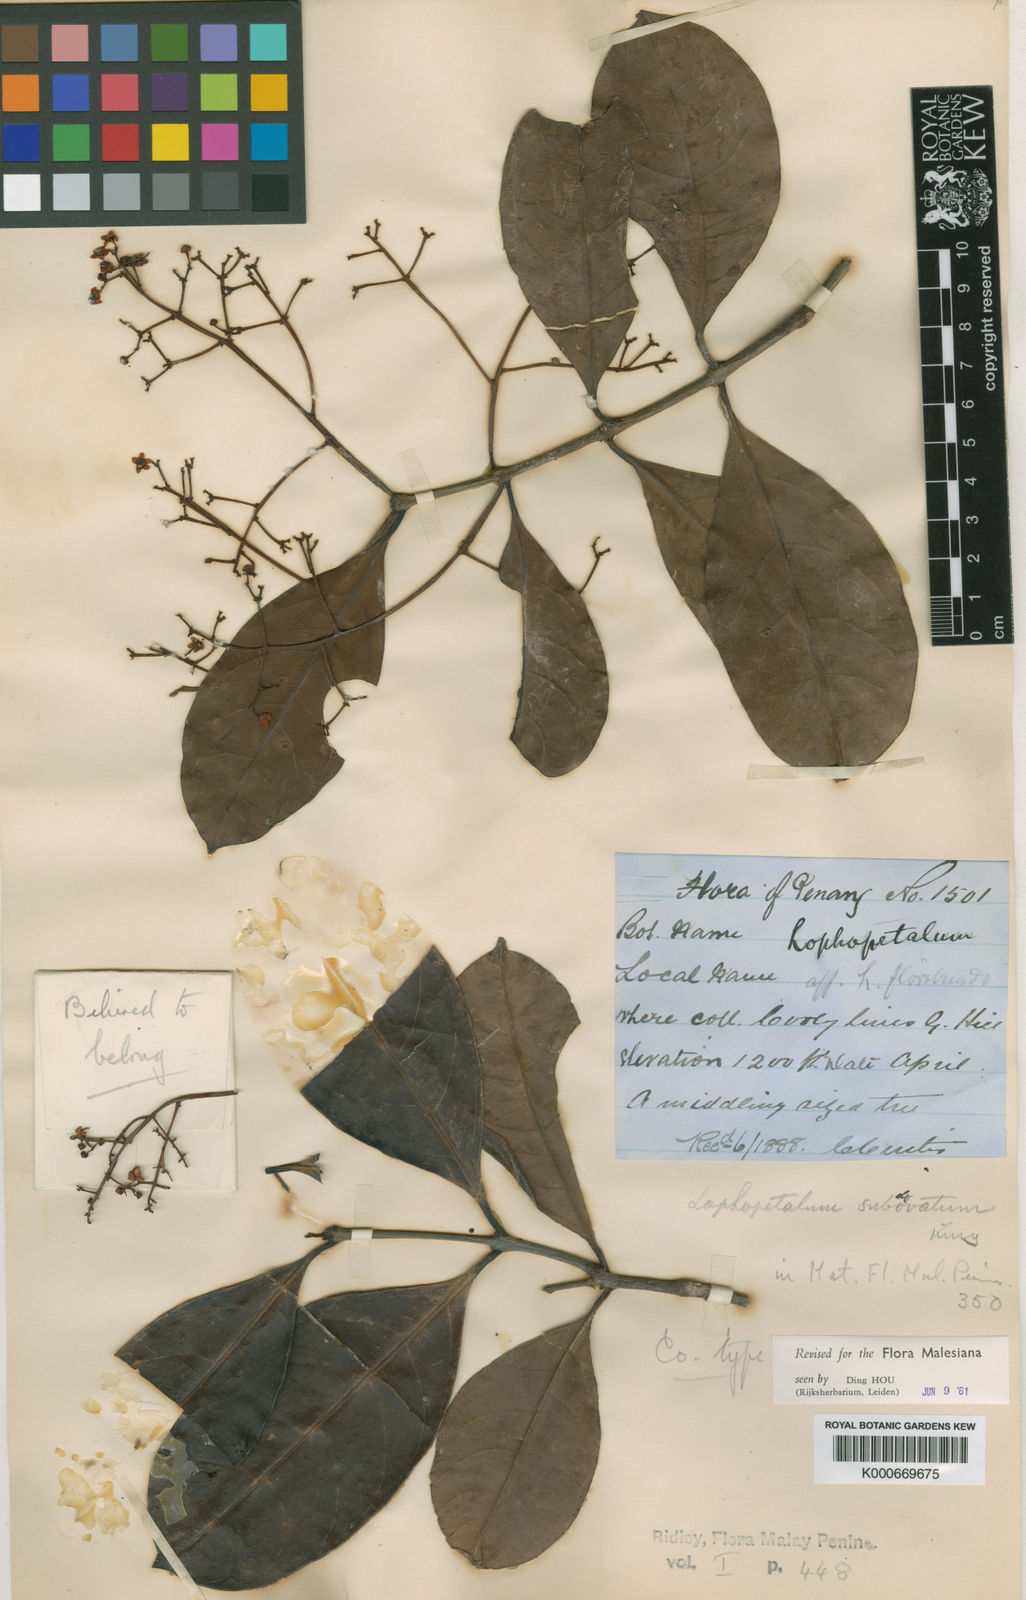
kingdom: Plantae
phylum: Tracheophyta
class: Magnoliopsida
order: Celastrales
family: Celastraceae
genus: Lophopetalum
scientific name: Lophopetalum subobovatum
